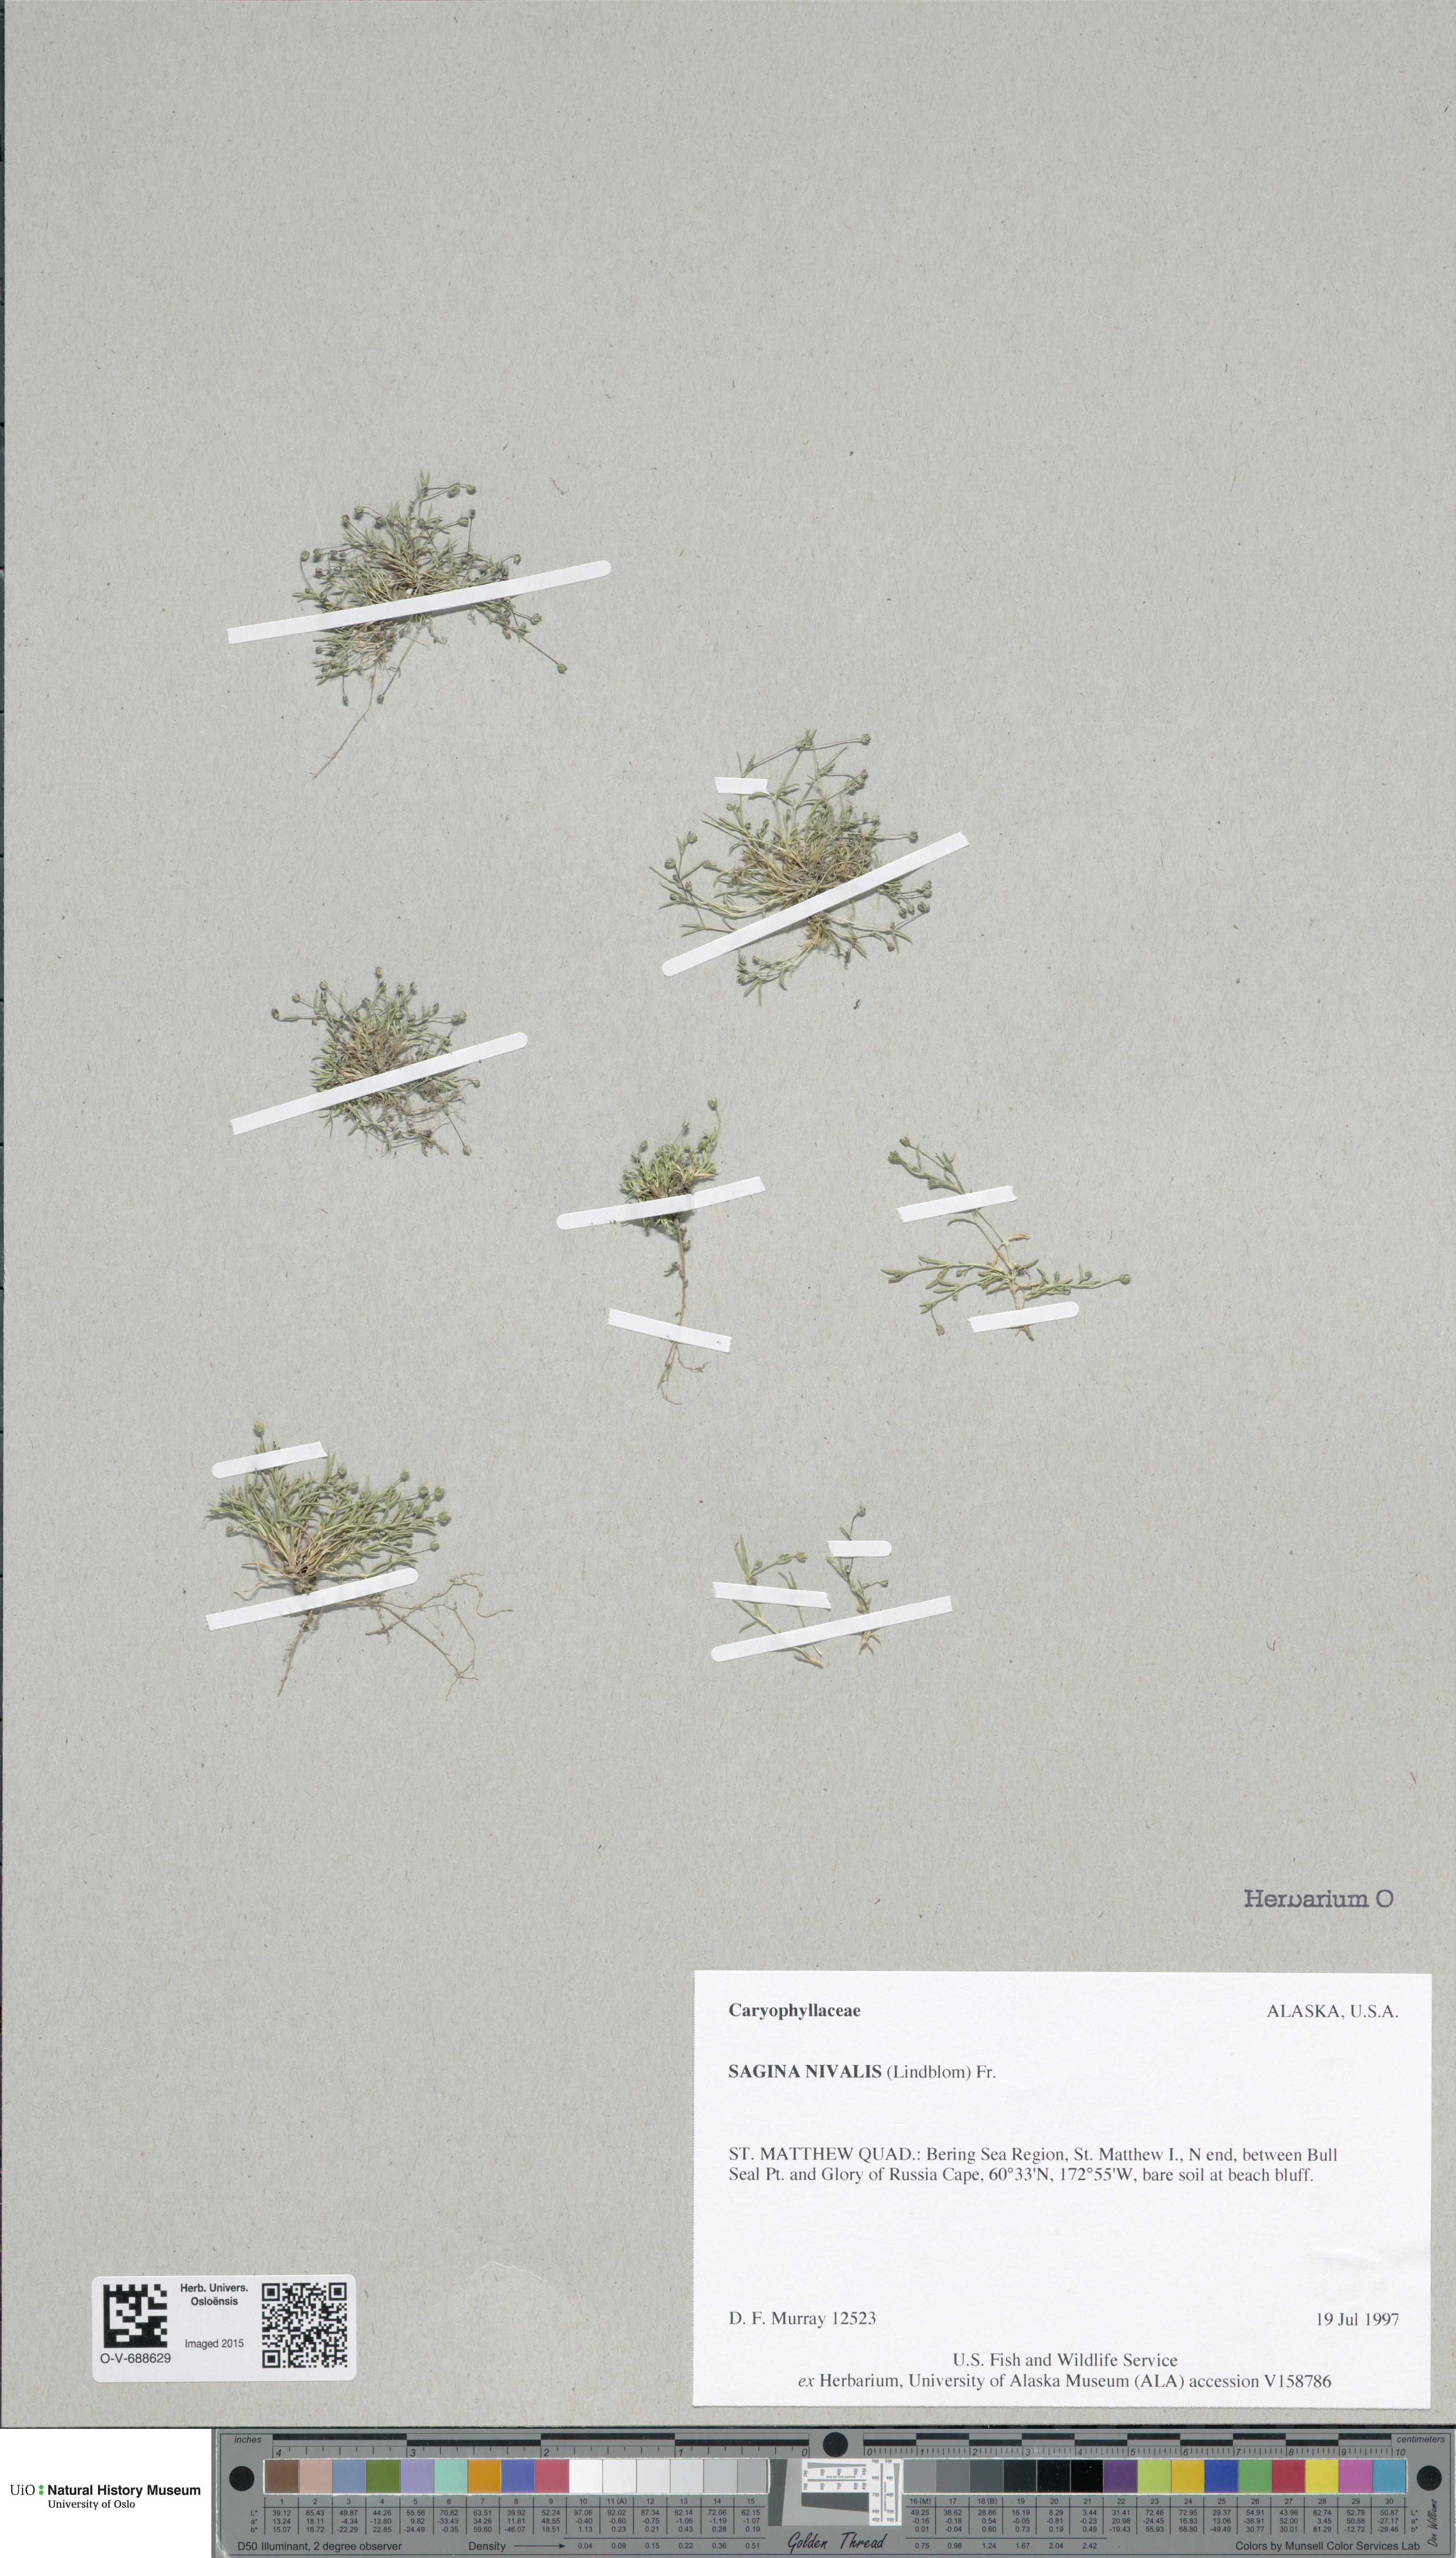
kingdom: Plantae
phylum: Tracheophyta
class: Magnoliopsida
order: Caryophyllales
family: Caryophyllaceae
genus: Sagina
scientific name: Sagina nivalis
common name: Snow pearlwort
